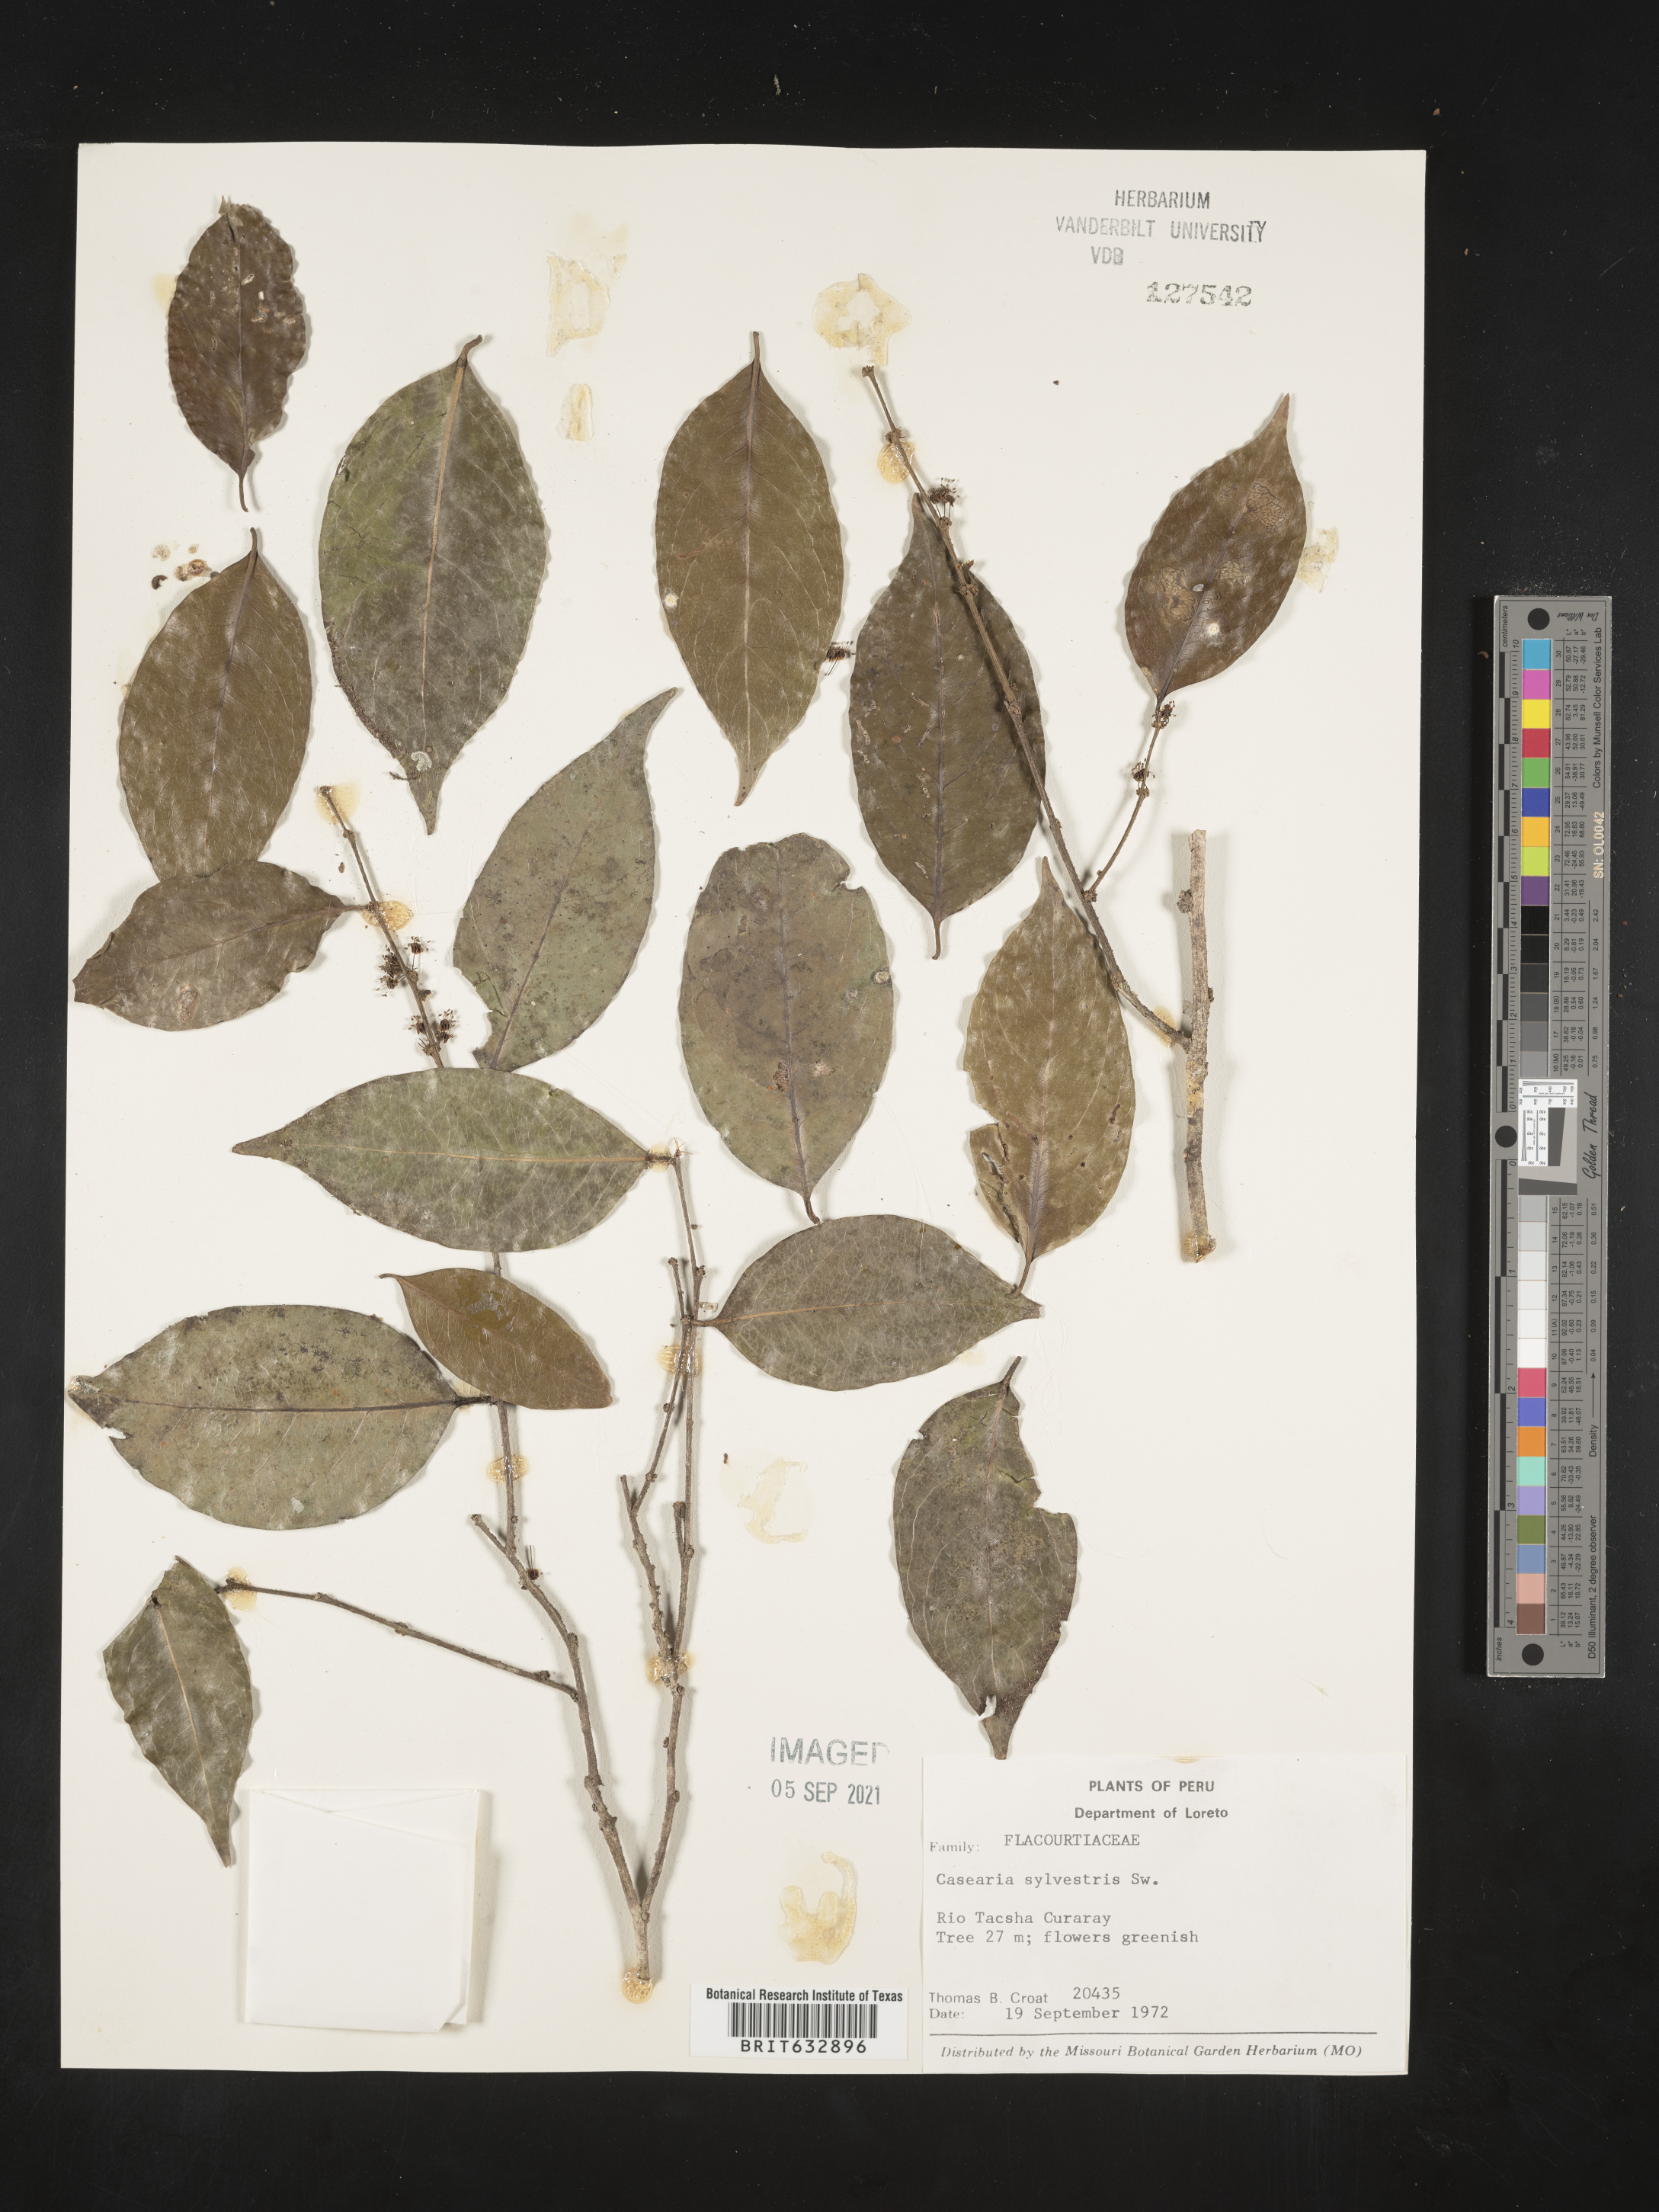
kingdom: Plantae
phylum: Tracheophyta
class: Magnoliopsida
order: Malpighiales
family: Salicaceae
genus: Casearia
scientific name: Casearia
